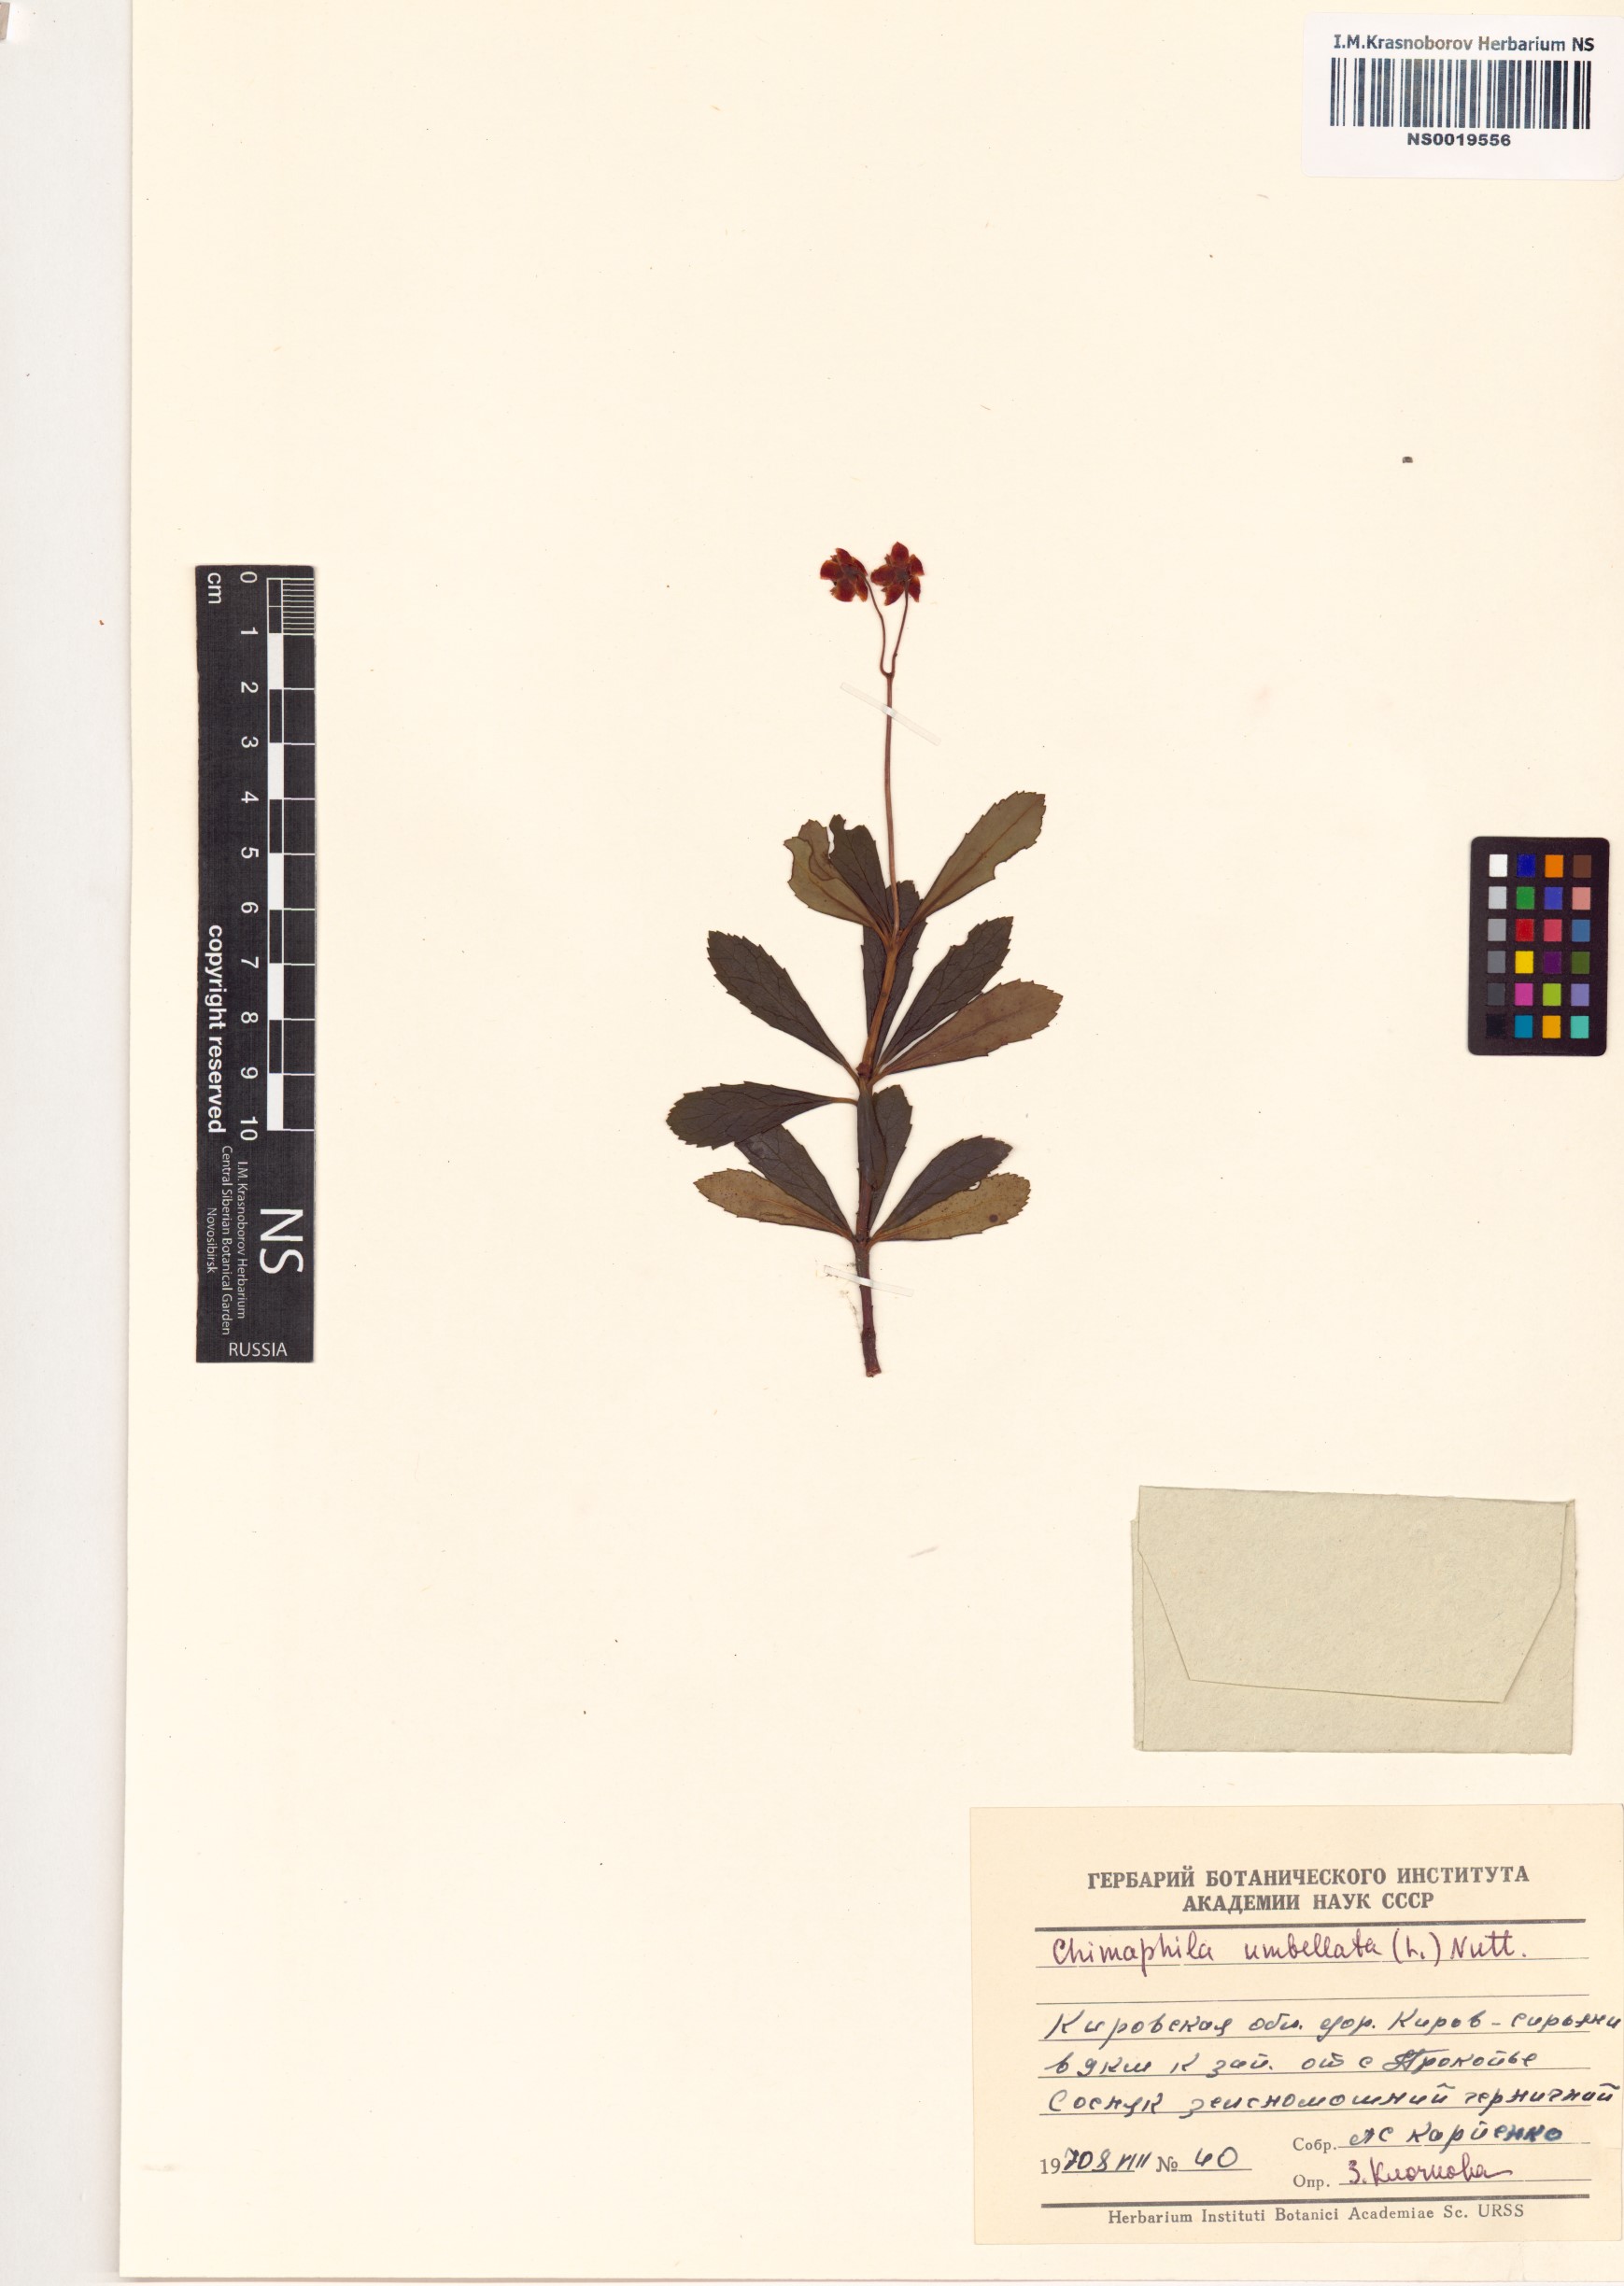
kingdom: Plantae
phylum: Tracheophyta
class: Magnoliopsida
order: Ericales
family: Ericaceae
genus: Chimaphila
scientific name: Chimaphila umbellata
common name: Pipsissewa
